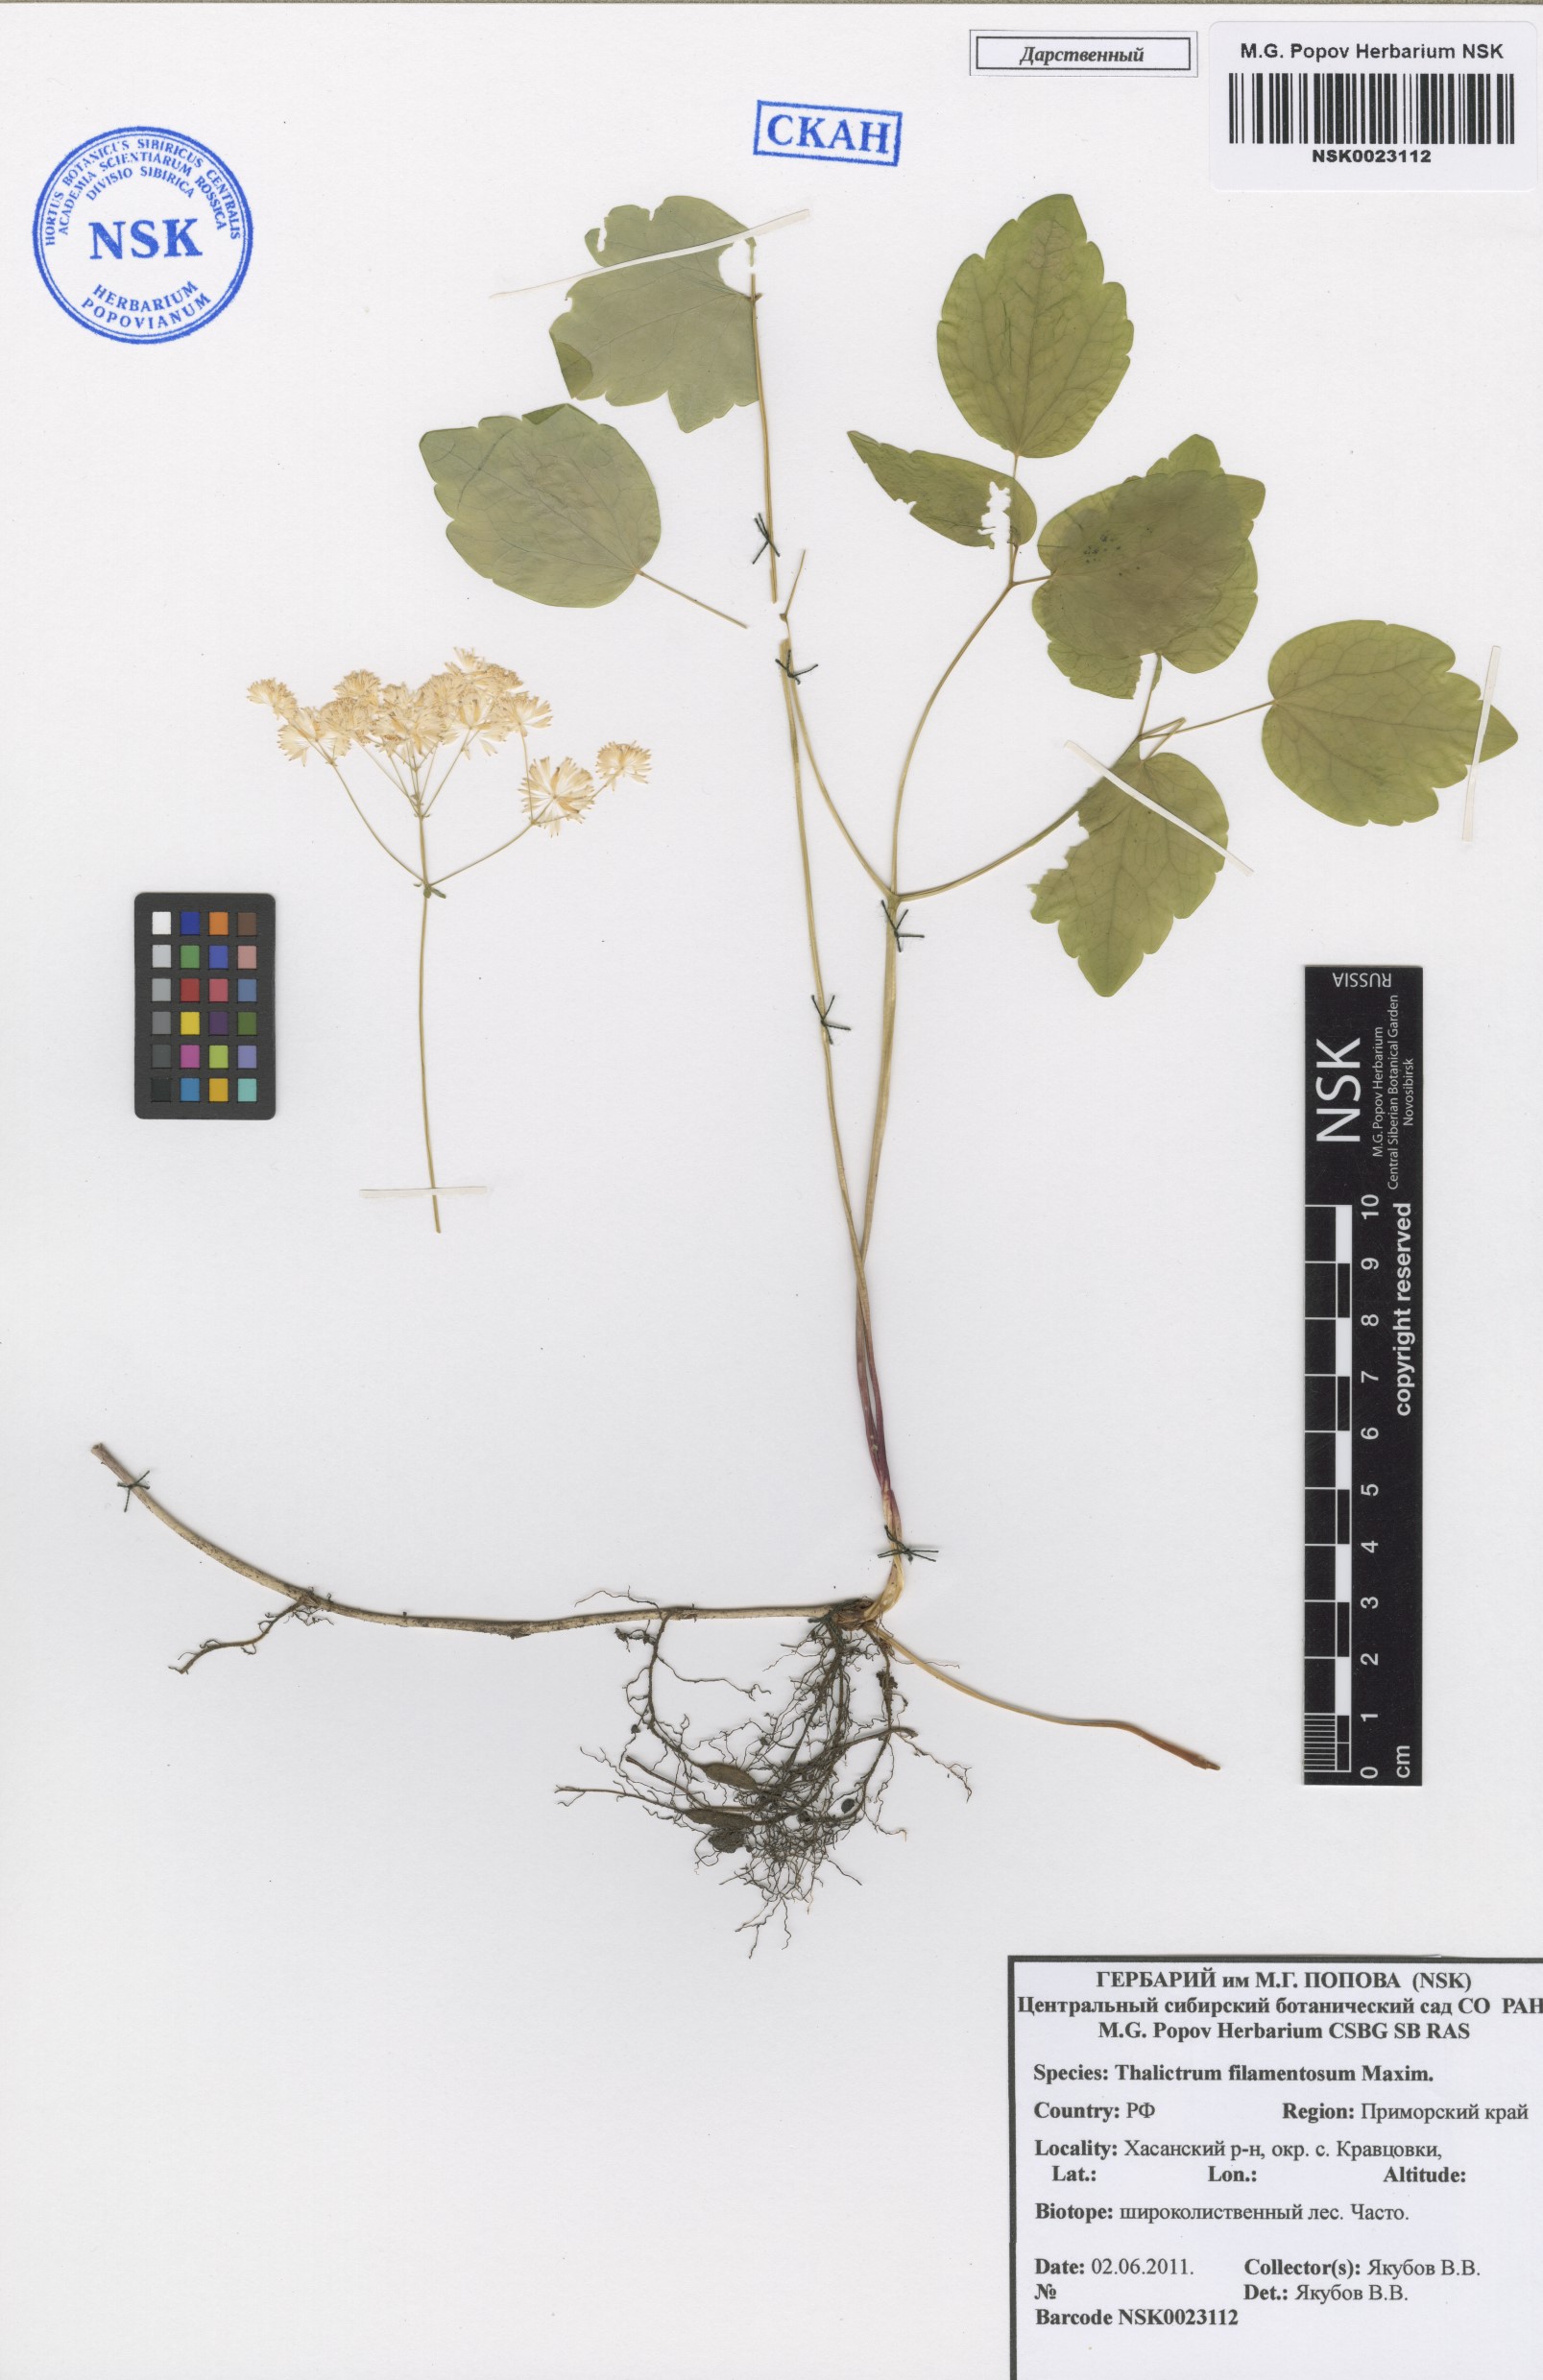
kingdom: Plantae
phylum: Tracheophyta
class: Magnoliopsida
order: Ranunculales
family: Ranunculaceae
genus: Thalictrum
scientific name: Thalictrum filamentosum
